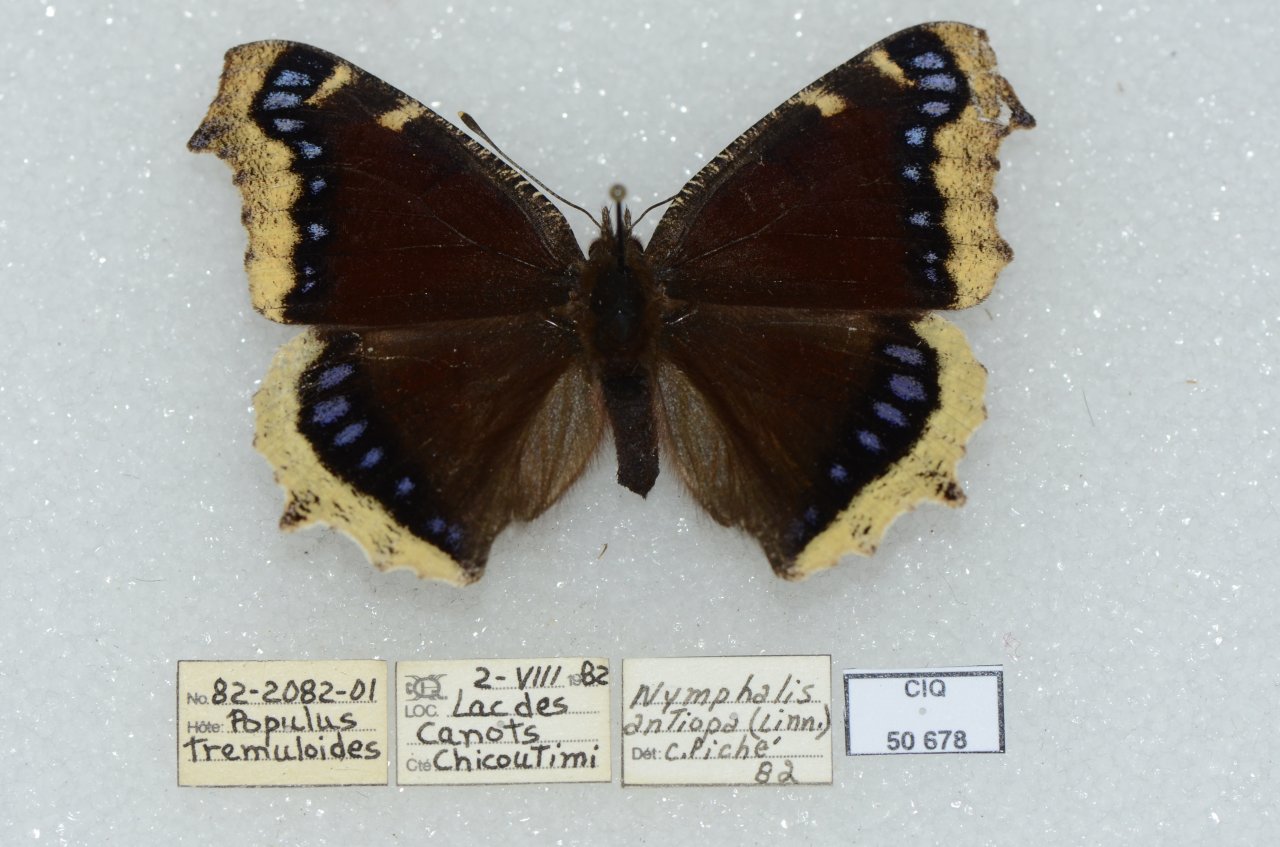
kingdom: Animalia
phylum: Arthropoda
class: Insecta
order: Lepidoptera
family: Nymphalidae
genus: Nymphalis
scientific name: Nymphalis antiopa
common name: Mourning Cloak
